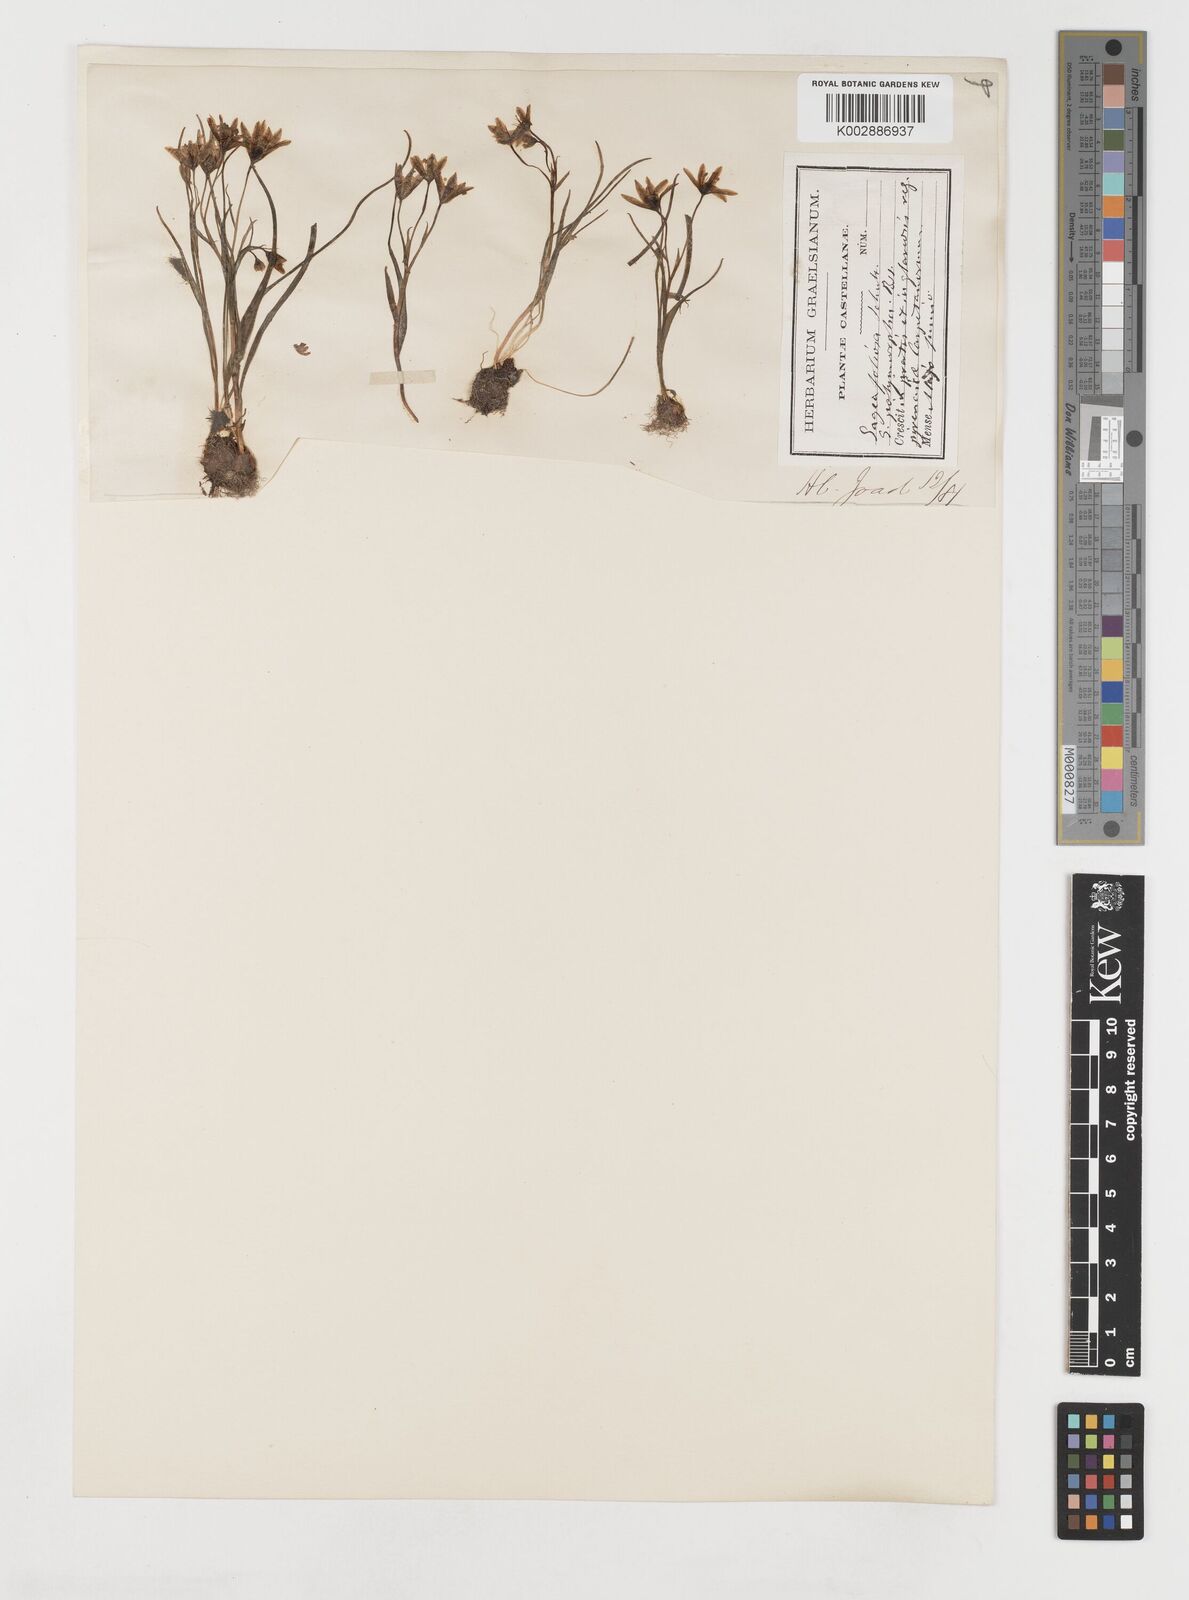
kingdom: Plantae
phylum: Tracheophyta
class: Liliopsida
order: Liliales
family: Liliaceae
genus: Gagea
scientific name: Gagea foliosa
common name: Leafy gagea
